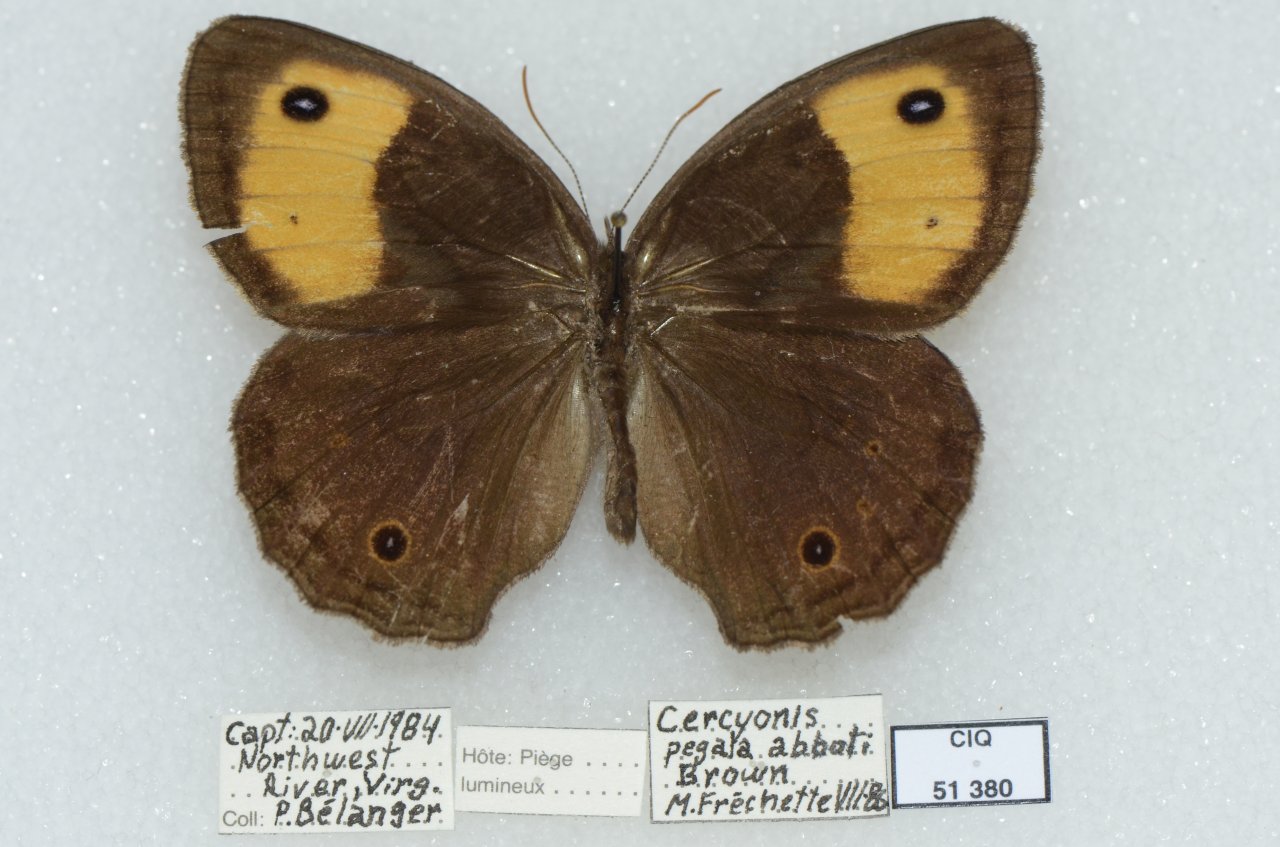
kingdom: Animalia
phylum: Arthropoda
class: Insecta
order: Lepidoptera
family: Nymphalidae
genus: Cercyonis
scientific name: Cercyonis pegala
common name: Common Wood-Nymph
